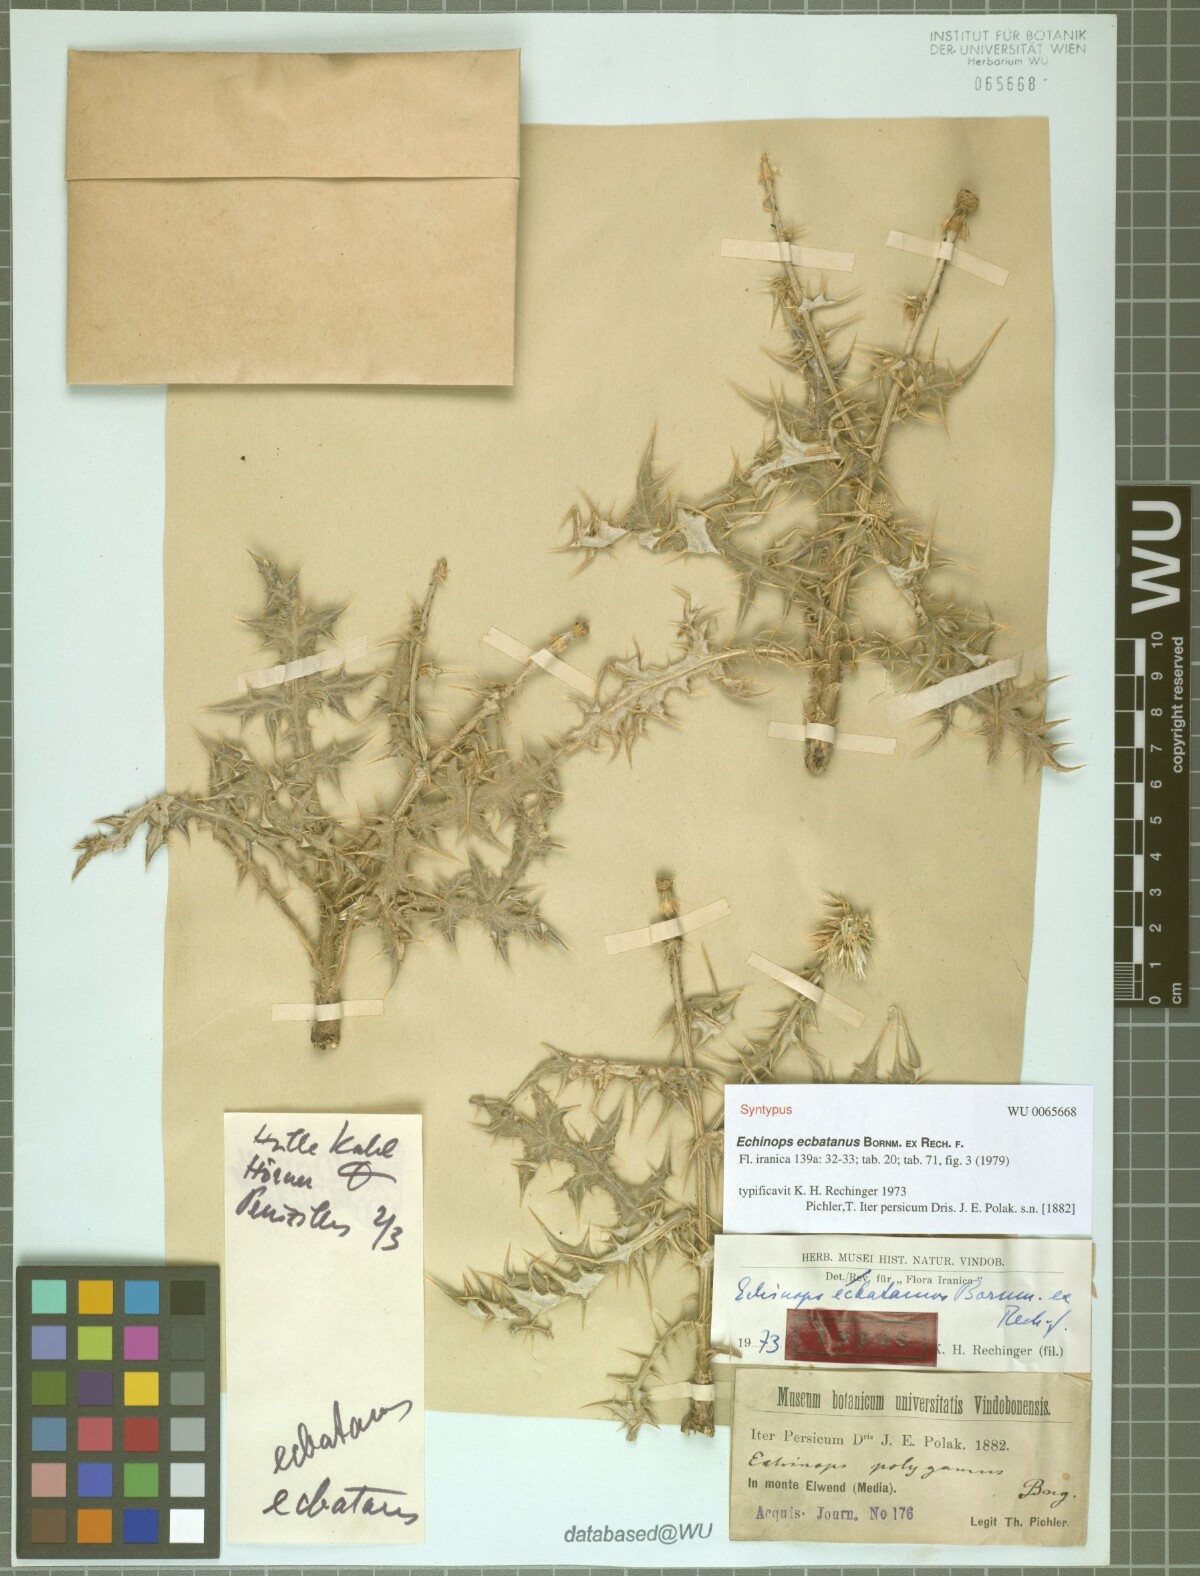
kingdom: Plantae
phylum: Tracheophyta
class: Magnoliopsida
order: Asterales
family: Asteraceae
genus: Echinops
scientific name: Echinops ecbatanus
